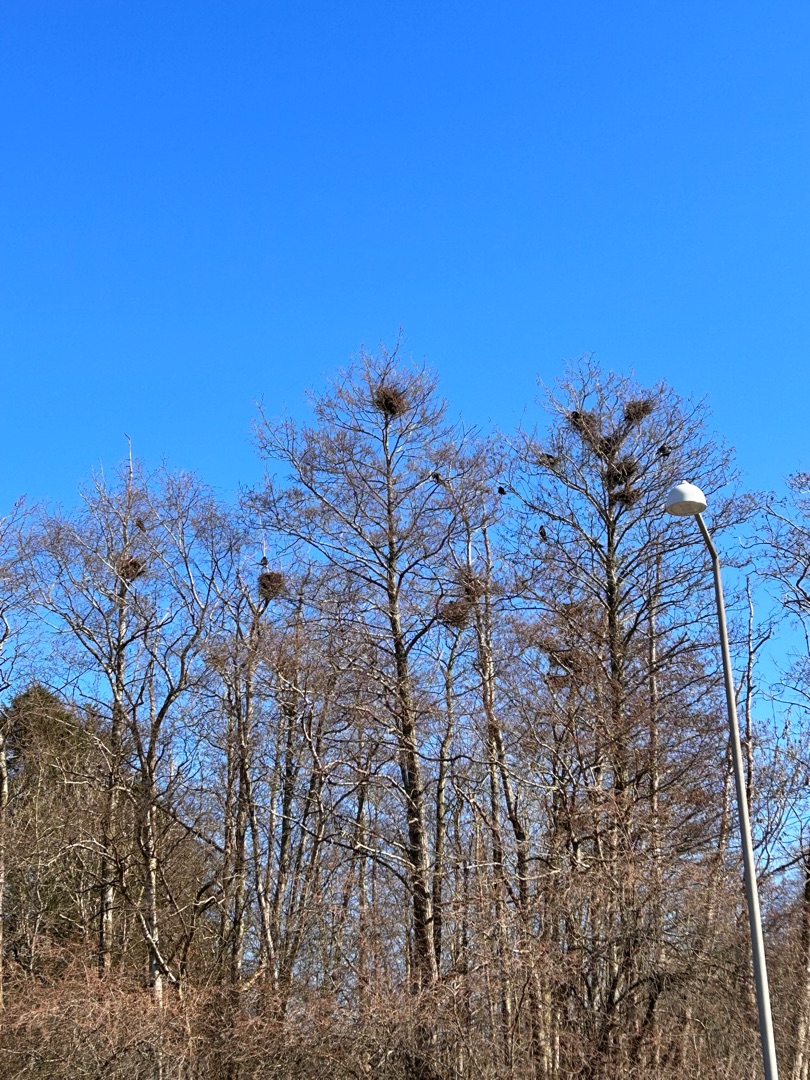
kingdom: Animalia
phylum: Chordata
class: Aves
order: Passeriformes
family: Corvidae
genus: Corvus
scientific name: Corvus frugilegus
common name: Råge
